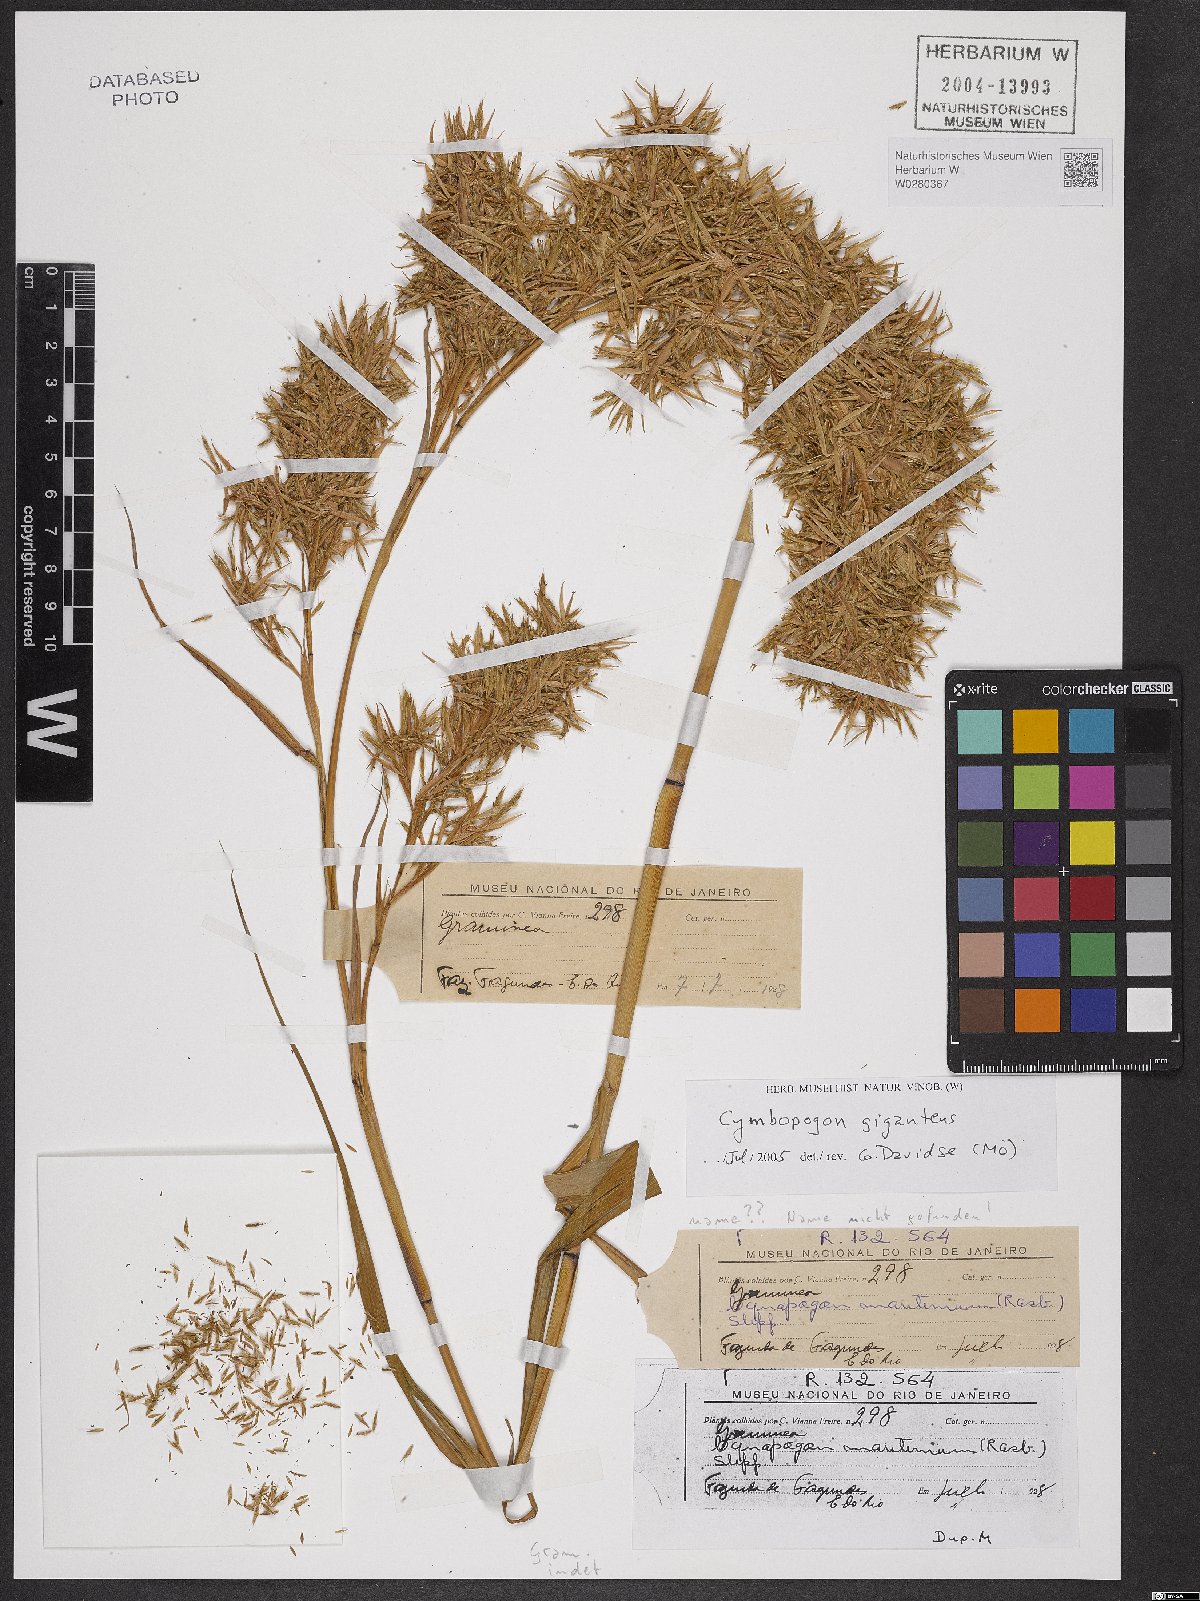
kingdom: Plantae
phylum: Tracheophyta
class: Liliopsida
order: Poales
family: Poaceae
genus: Cymbopogon
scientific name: Cymbopogon giganteus
